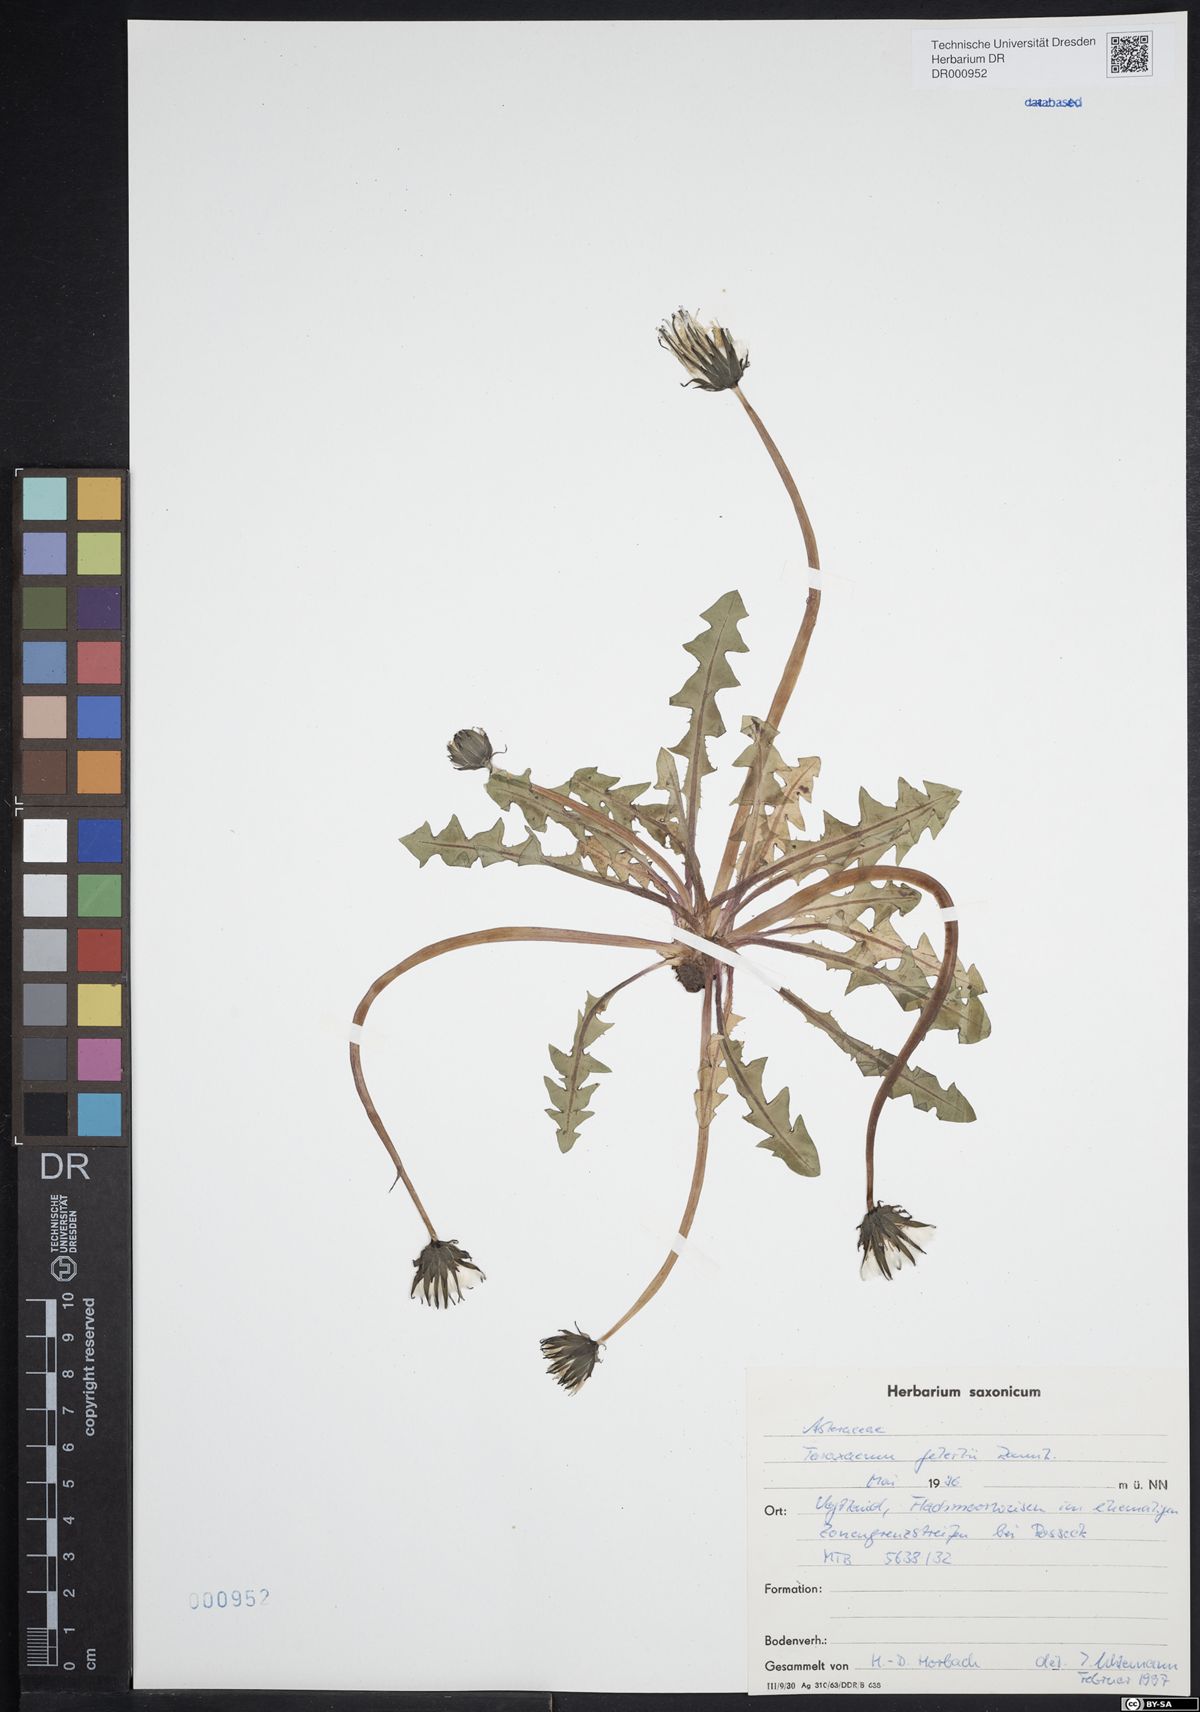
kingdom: Plantae
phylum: Tracheophyta
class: Magnoliopsida
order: Asterales
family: Asteraceae
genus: Taraxacum
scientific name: Taraxacum gelertii
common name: Gelert's dandelion
